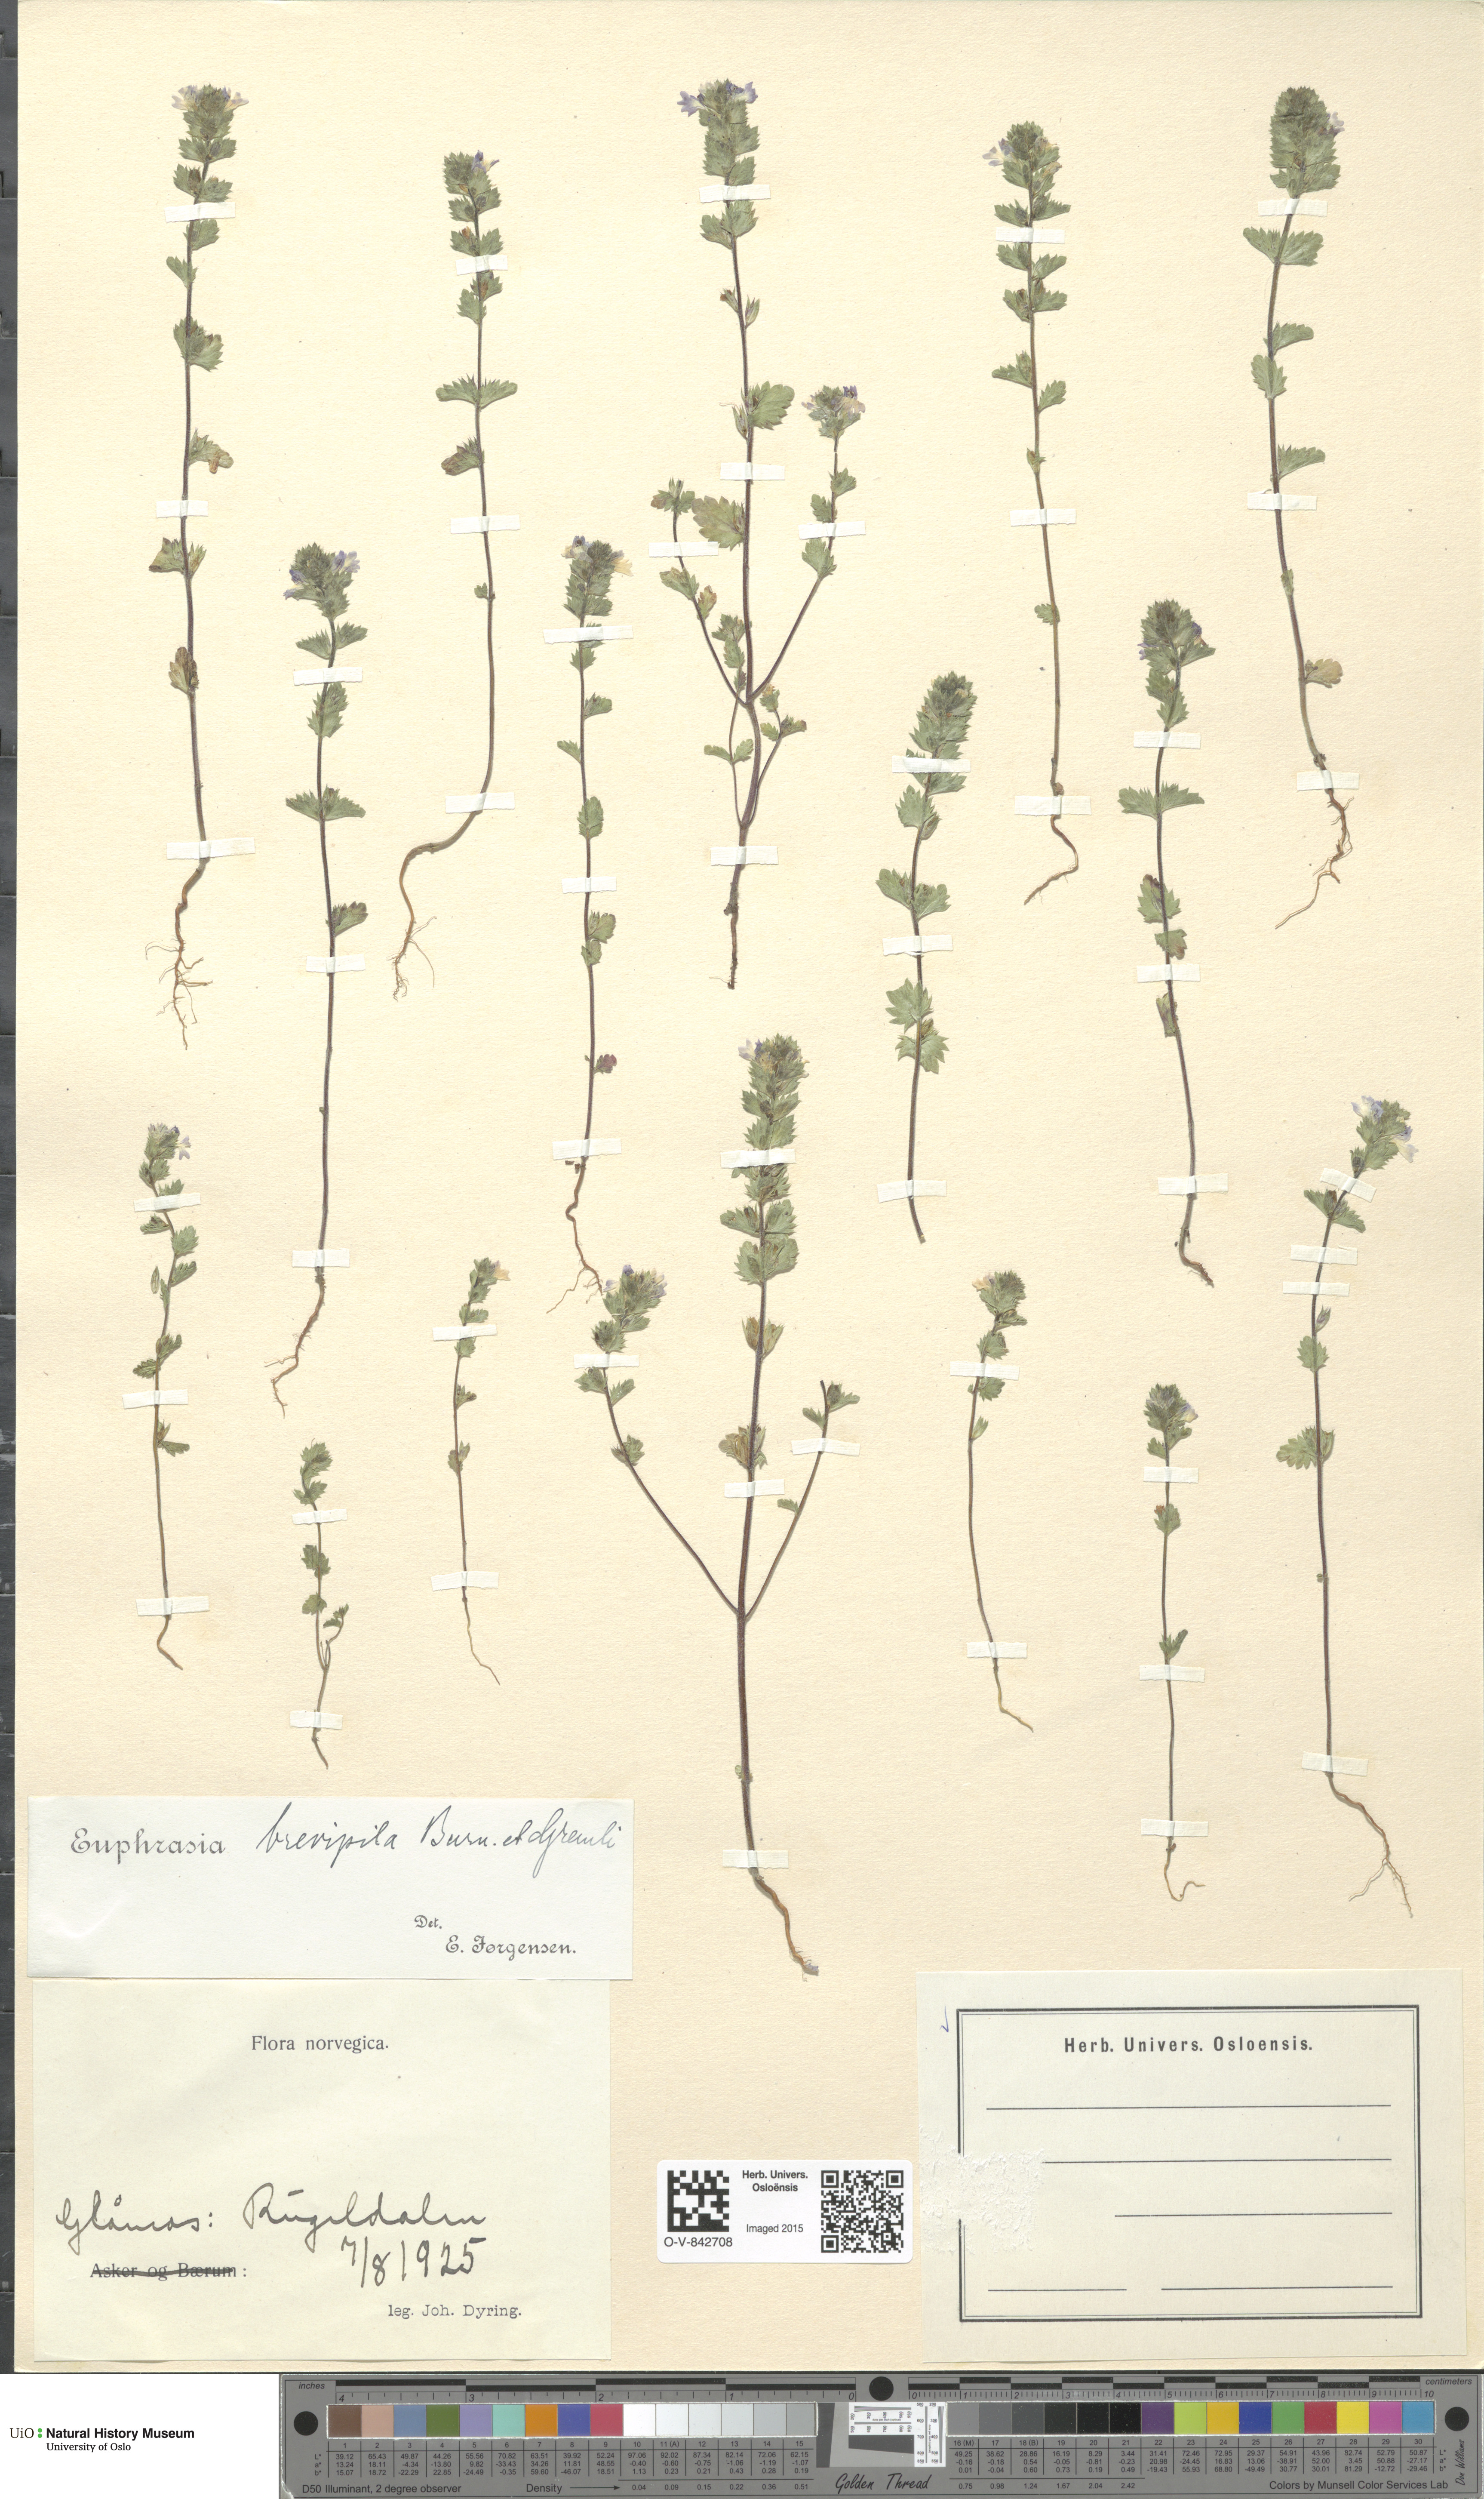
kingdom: Plantae
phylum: Tracheophyta
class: Magnoliopsida
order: Lamiales
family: Orobanchaceae
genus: Euphrasia
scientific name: Euphrasia vernalis
